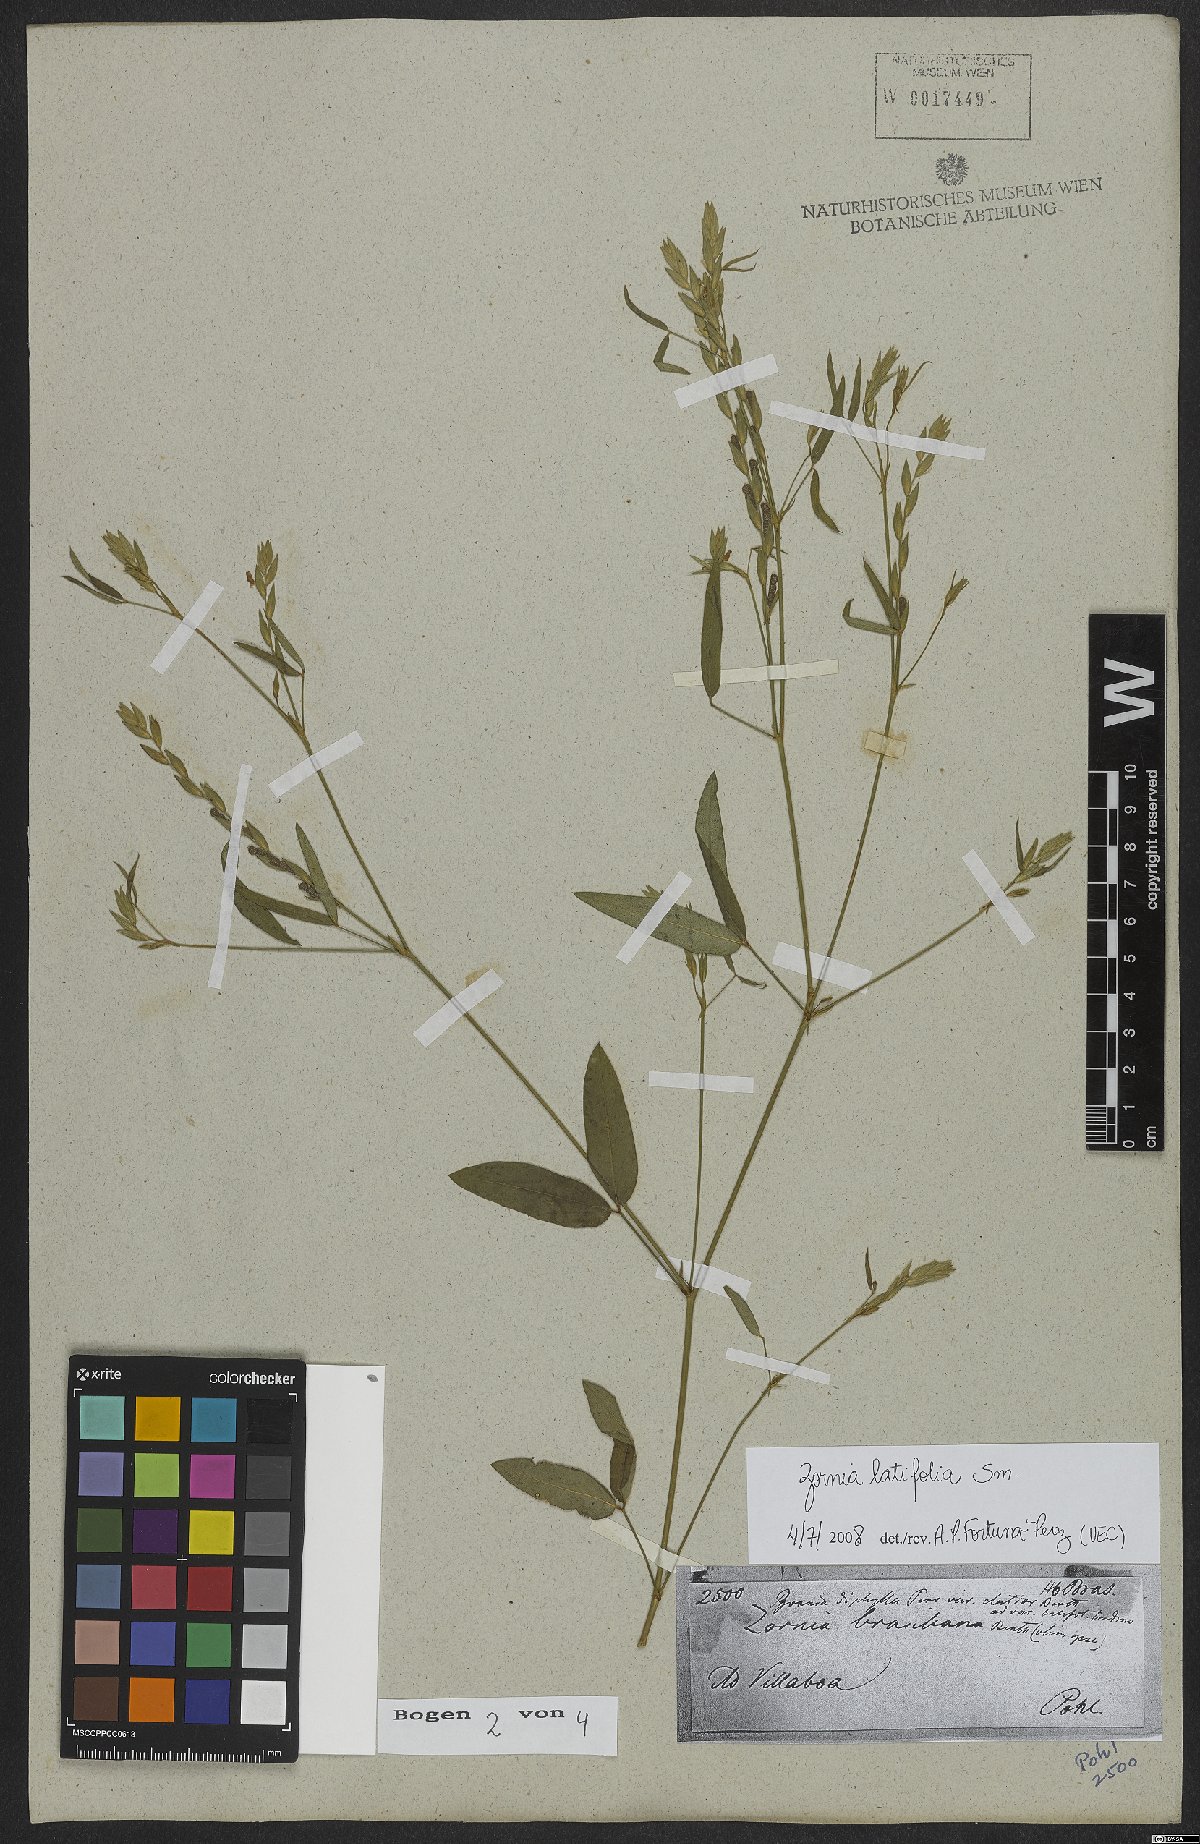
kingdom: Plantae
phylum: Tracheophyta
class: Magnoliopsida
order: Fabales
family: Fabaceae
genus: Zornia
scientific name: Zornia sericea
